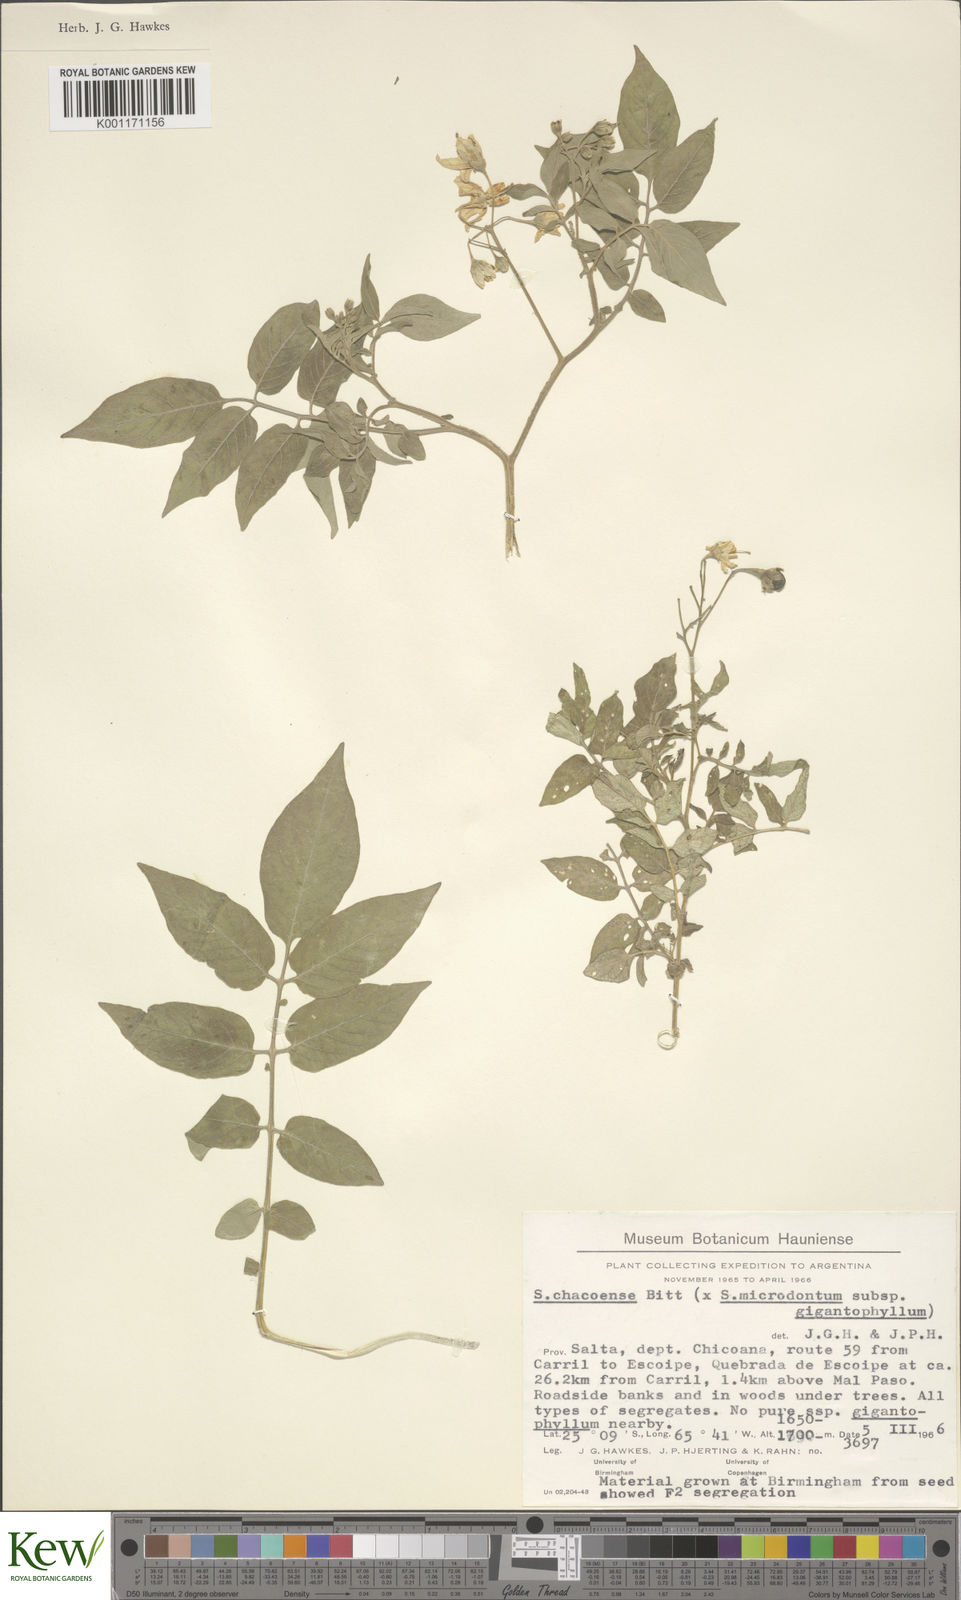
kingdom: Plantae
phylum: Tracheophyta
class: Magnoliopsida
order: Solanales
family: Solanaceae
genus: Solanum
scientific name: Solanum microdontum
